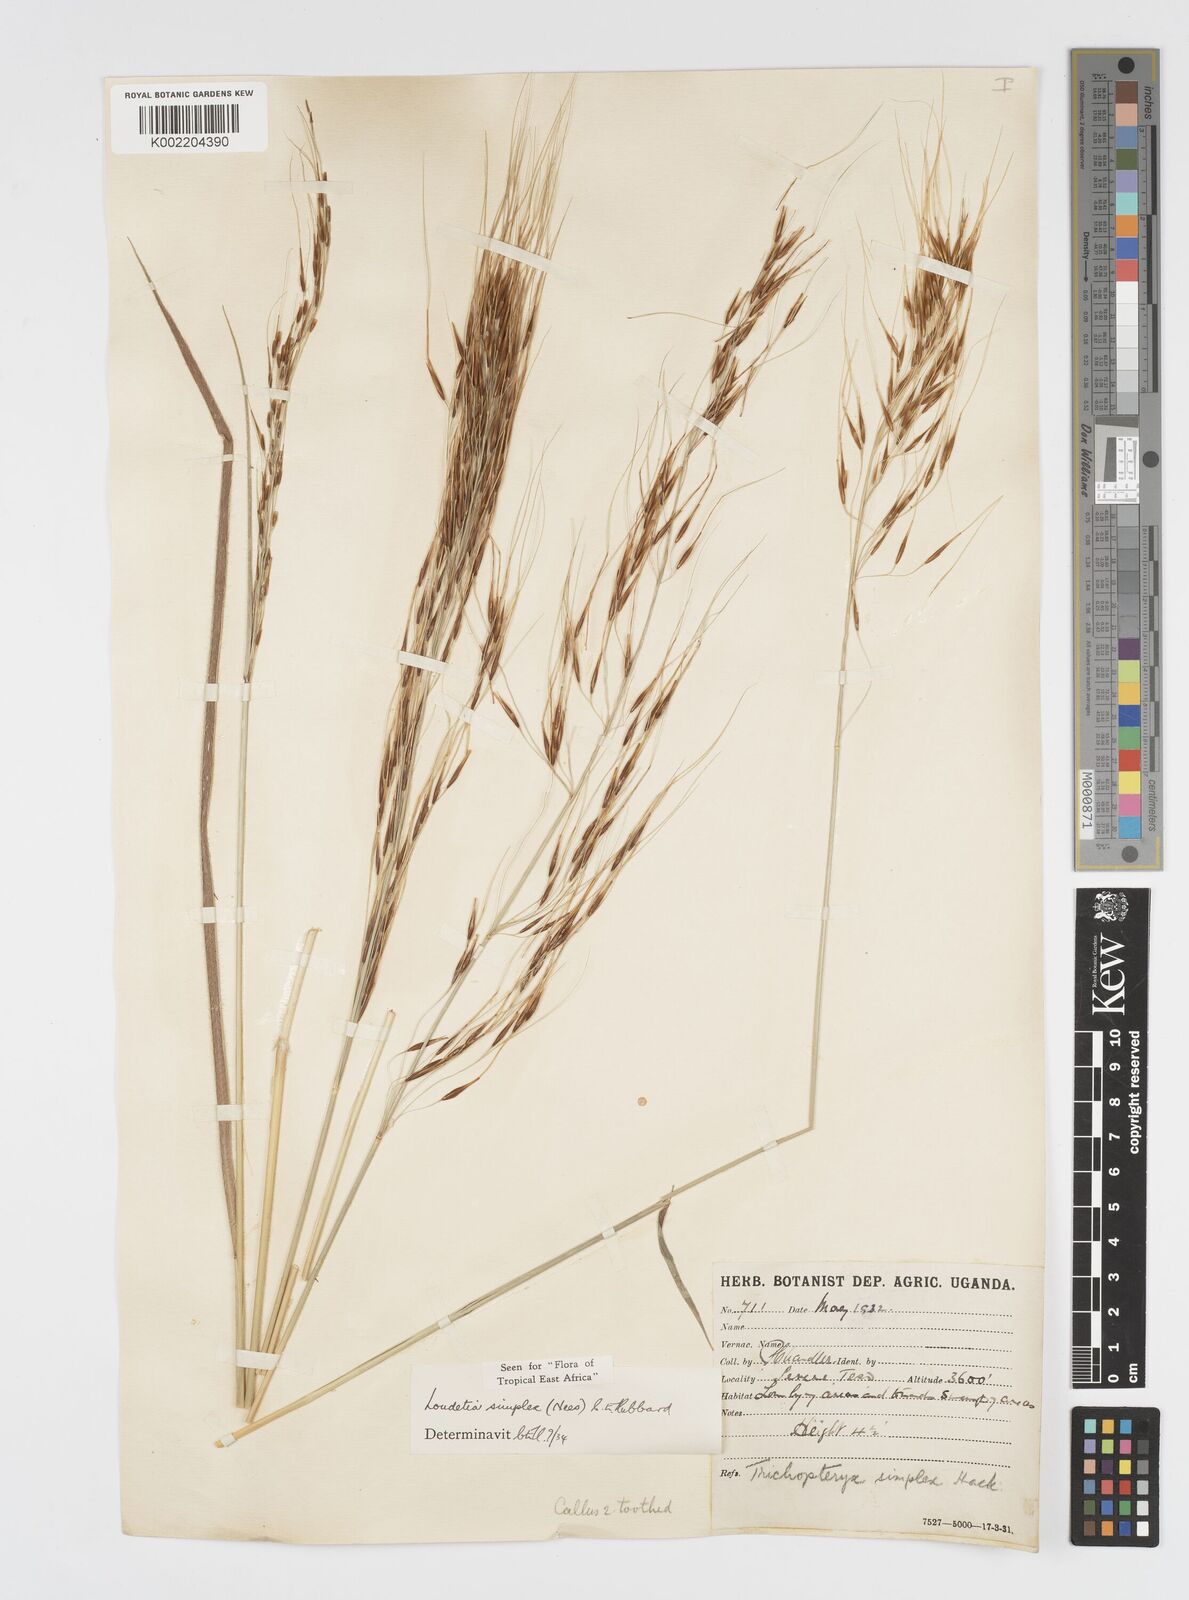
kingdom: Plantae
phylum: Tracheophyta
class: Liliopsida
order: Poales
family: Poaceae
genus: Loudetia
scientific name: Loudetia simplex
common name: Common russet grass
